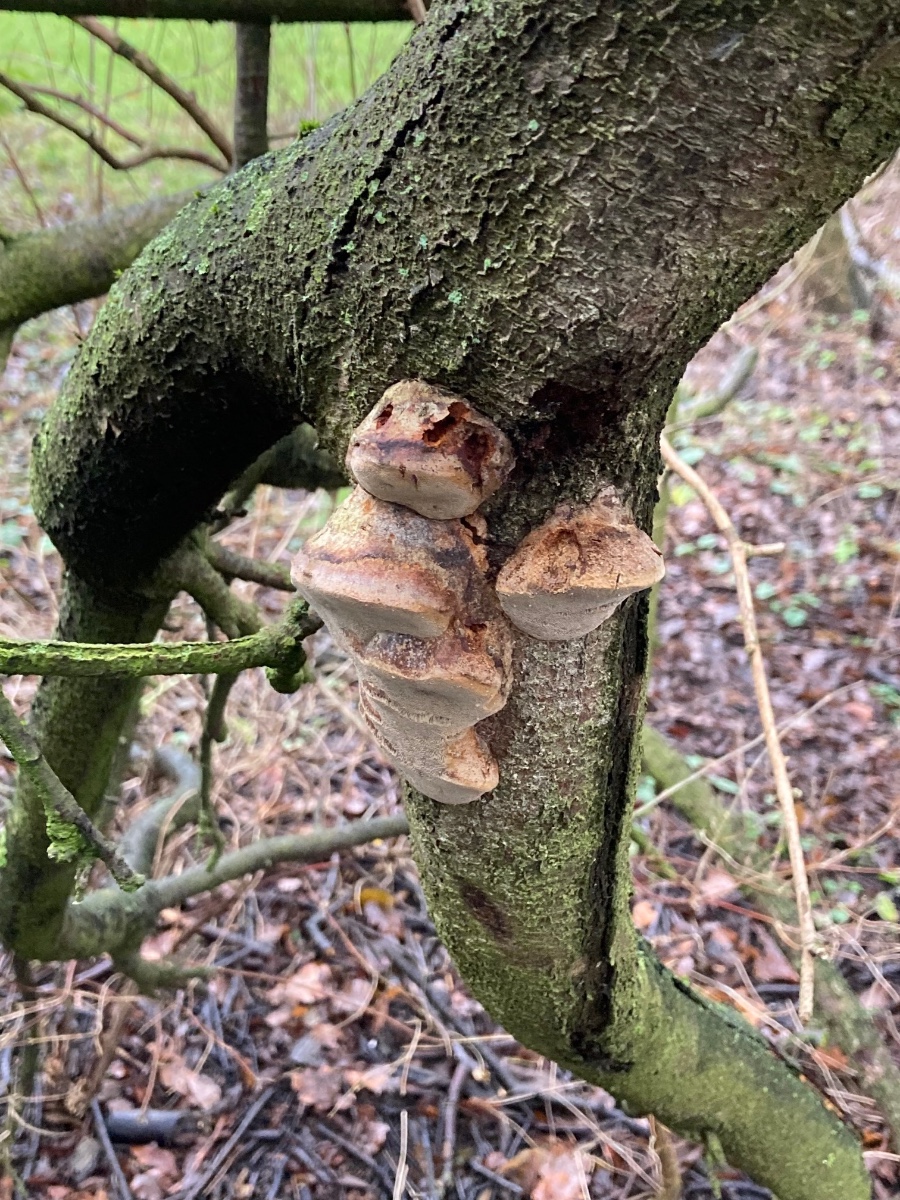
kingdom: Fungi
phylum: Basidiomycota
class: Agaricomycetes
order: Hymenochaetales
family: Hymenochaetaceae
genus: Phellinus
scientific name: Phellinus pomaceus
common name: blomme-ildporesvamp
